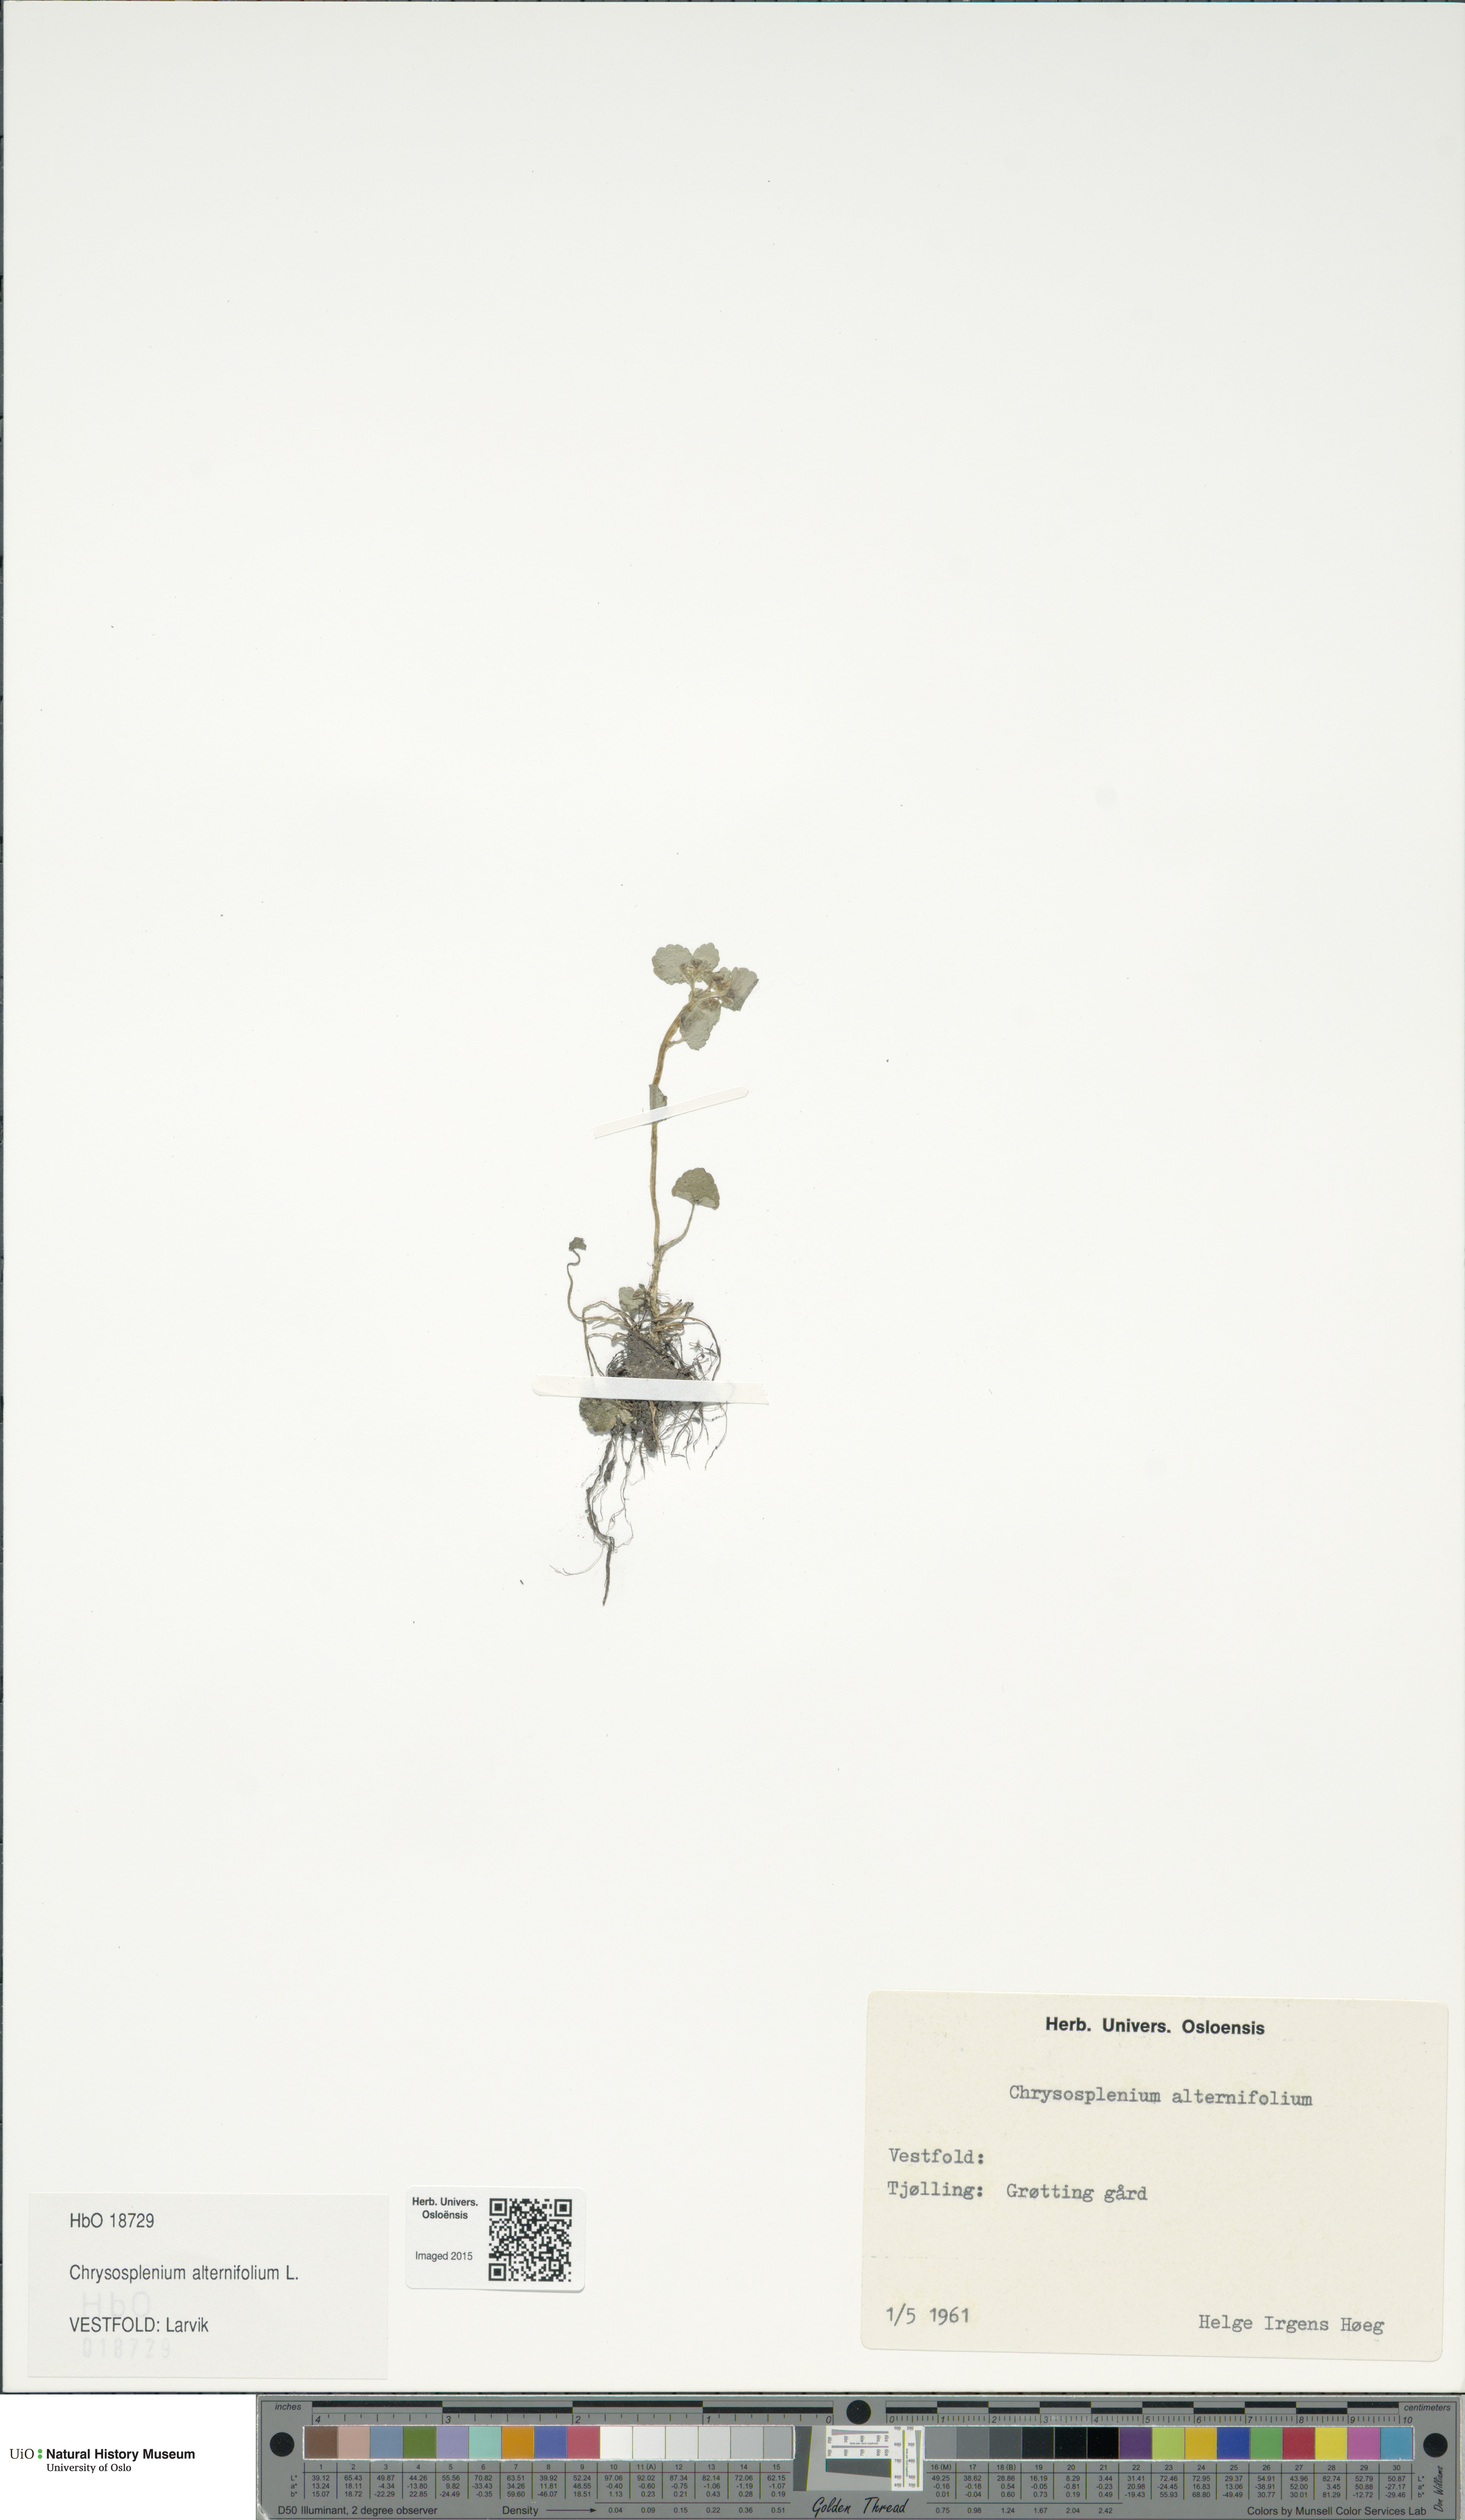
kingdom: Plantae
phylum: Tracheophyta
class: Magnoliopsida
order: Saxifragales
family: Saxifragaceae
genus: Chrysosplenium
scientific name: Chrysosplenium alternifolium
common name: Alternate-leaved golden-saxifrage
